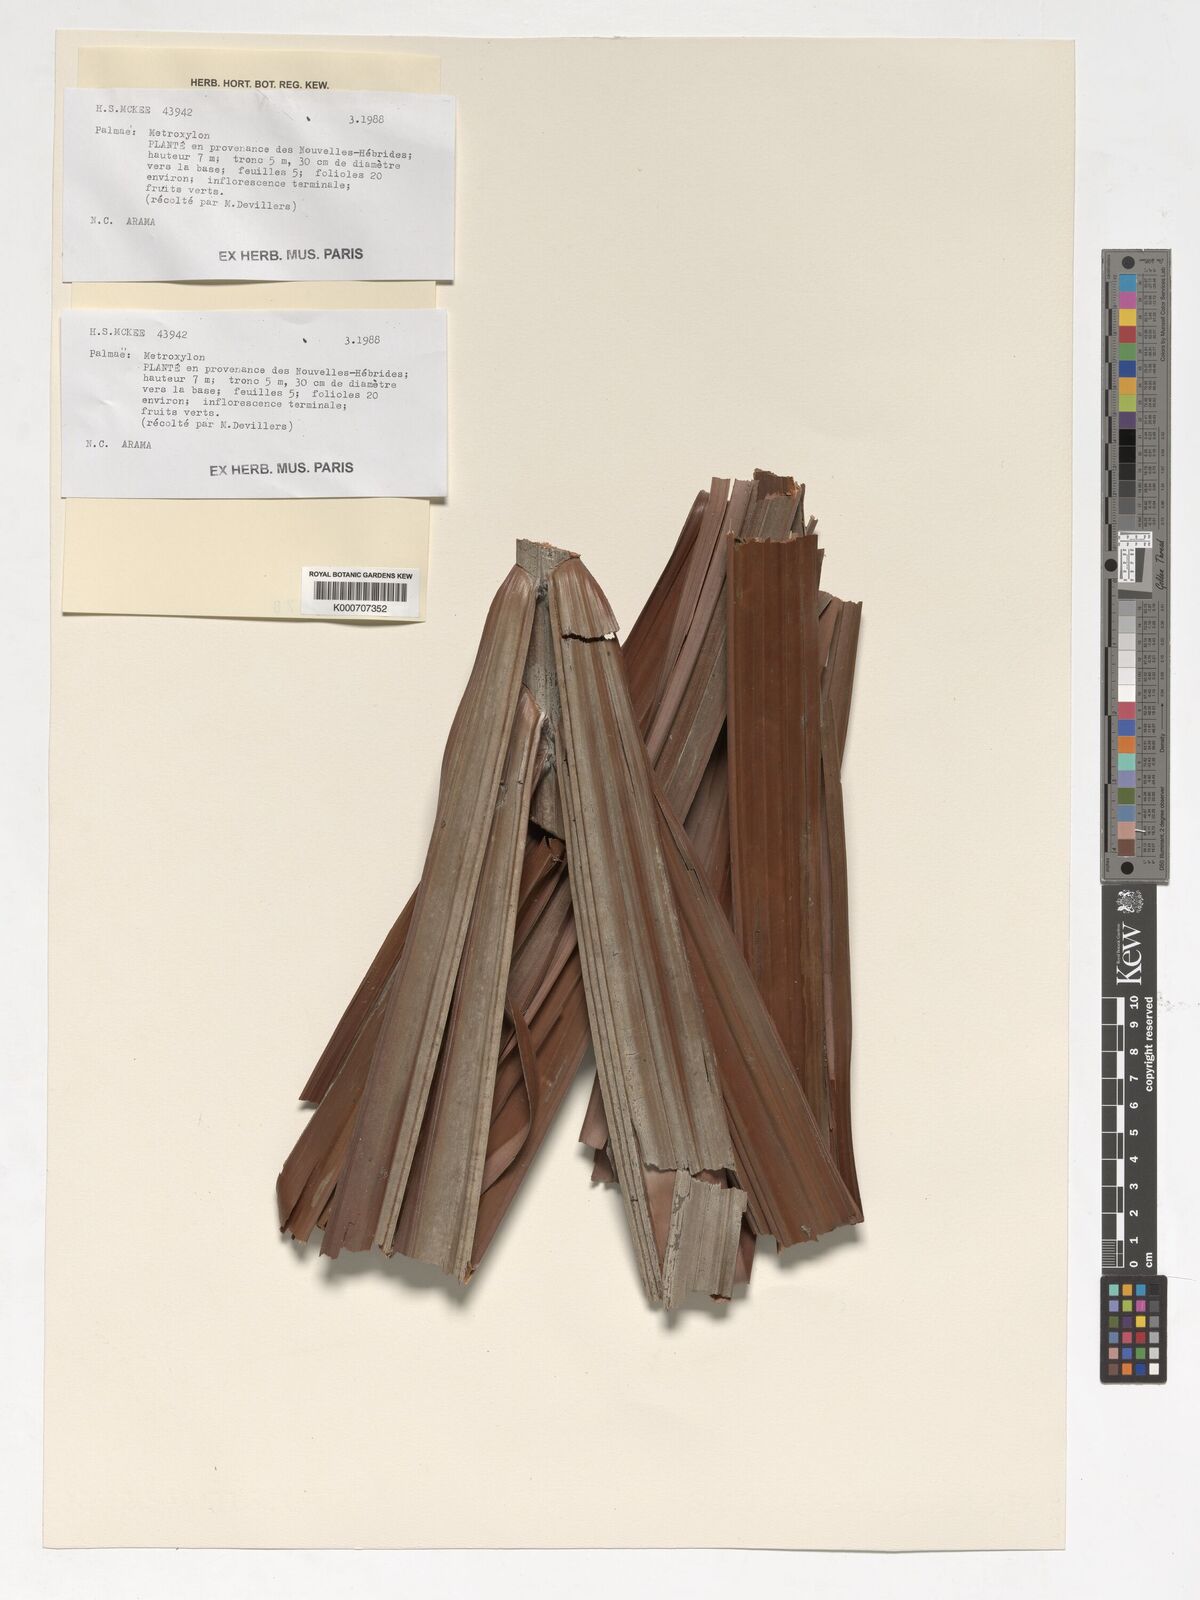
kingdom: Plantae
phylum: Tracheophyta
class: Liliopsida
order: Arecales
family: Arecaceae
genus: Metroxylon
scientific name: Metroxylon
